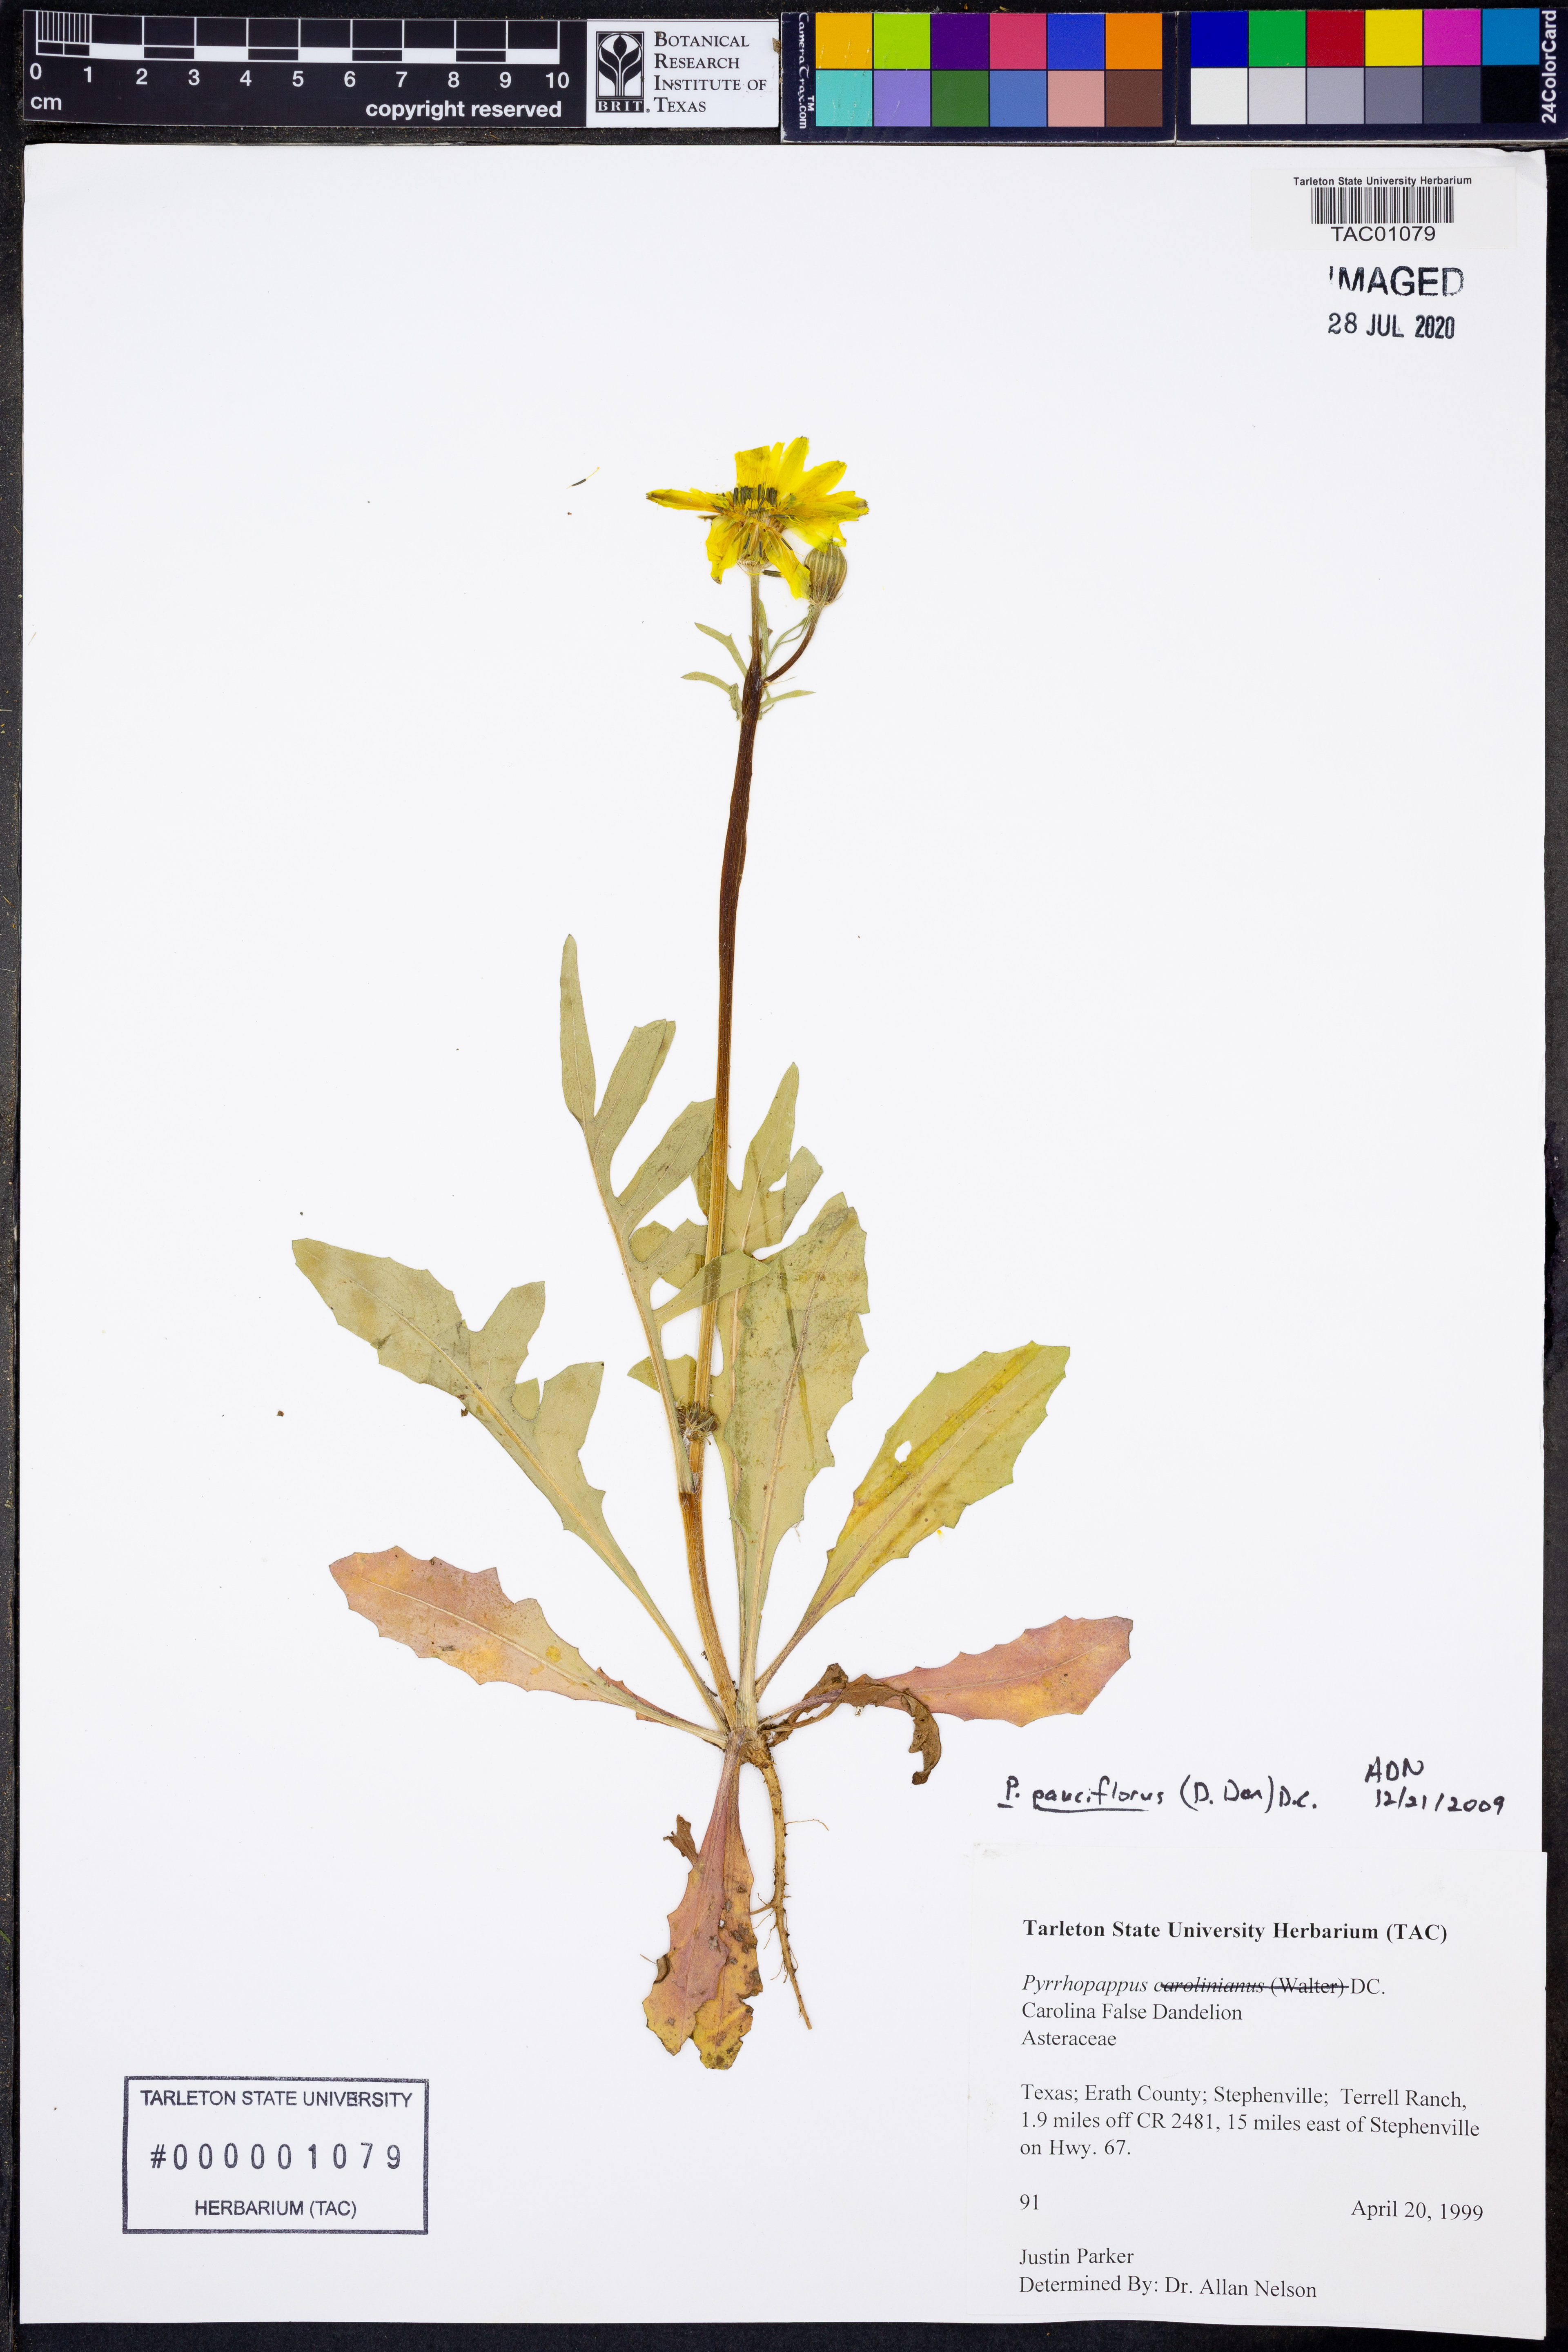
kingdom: Plantae
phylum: Tracheophyta
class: Magnoliopsida
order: Asterales
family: Asteraceae
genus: Pyrrhopappus
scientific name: Pyrrhopappus pauciflorus
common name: Texas false dandelion
